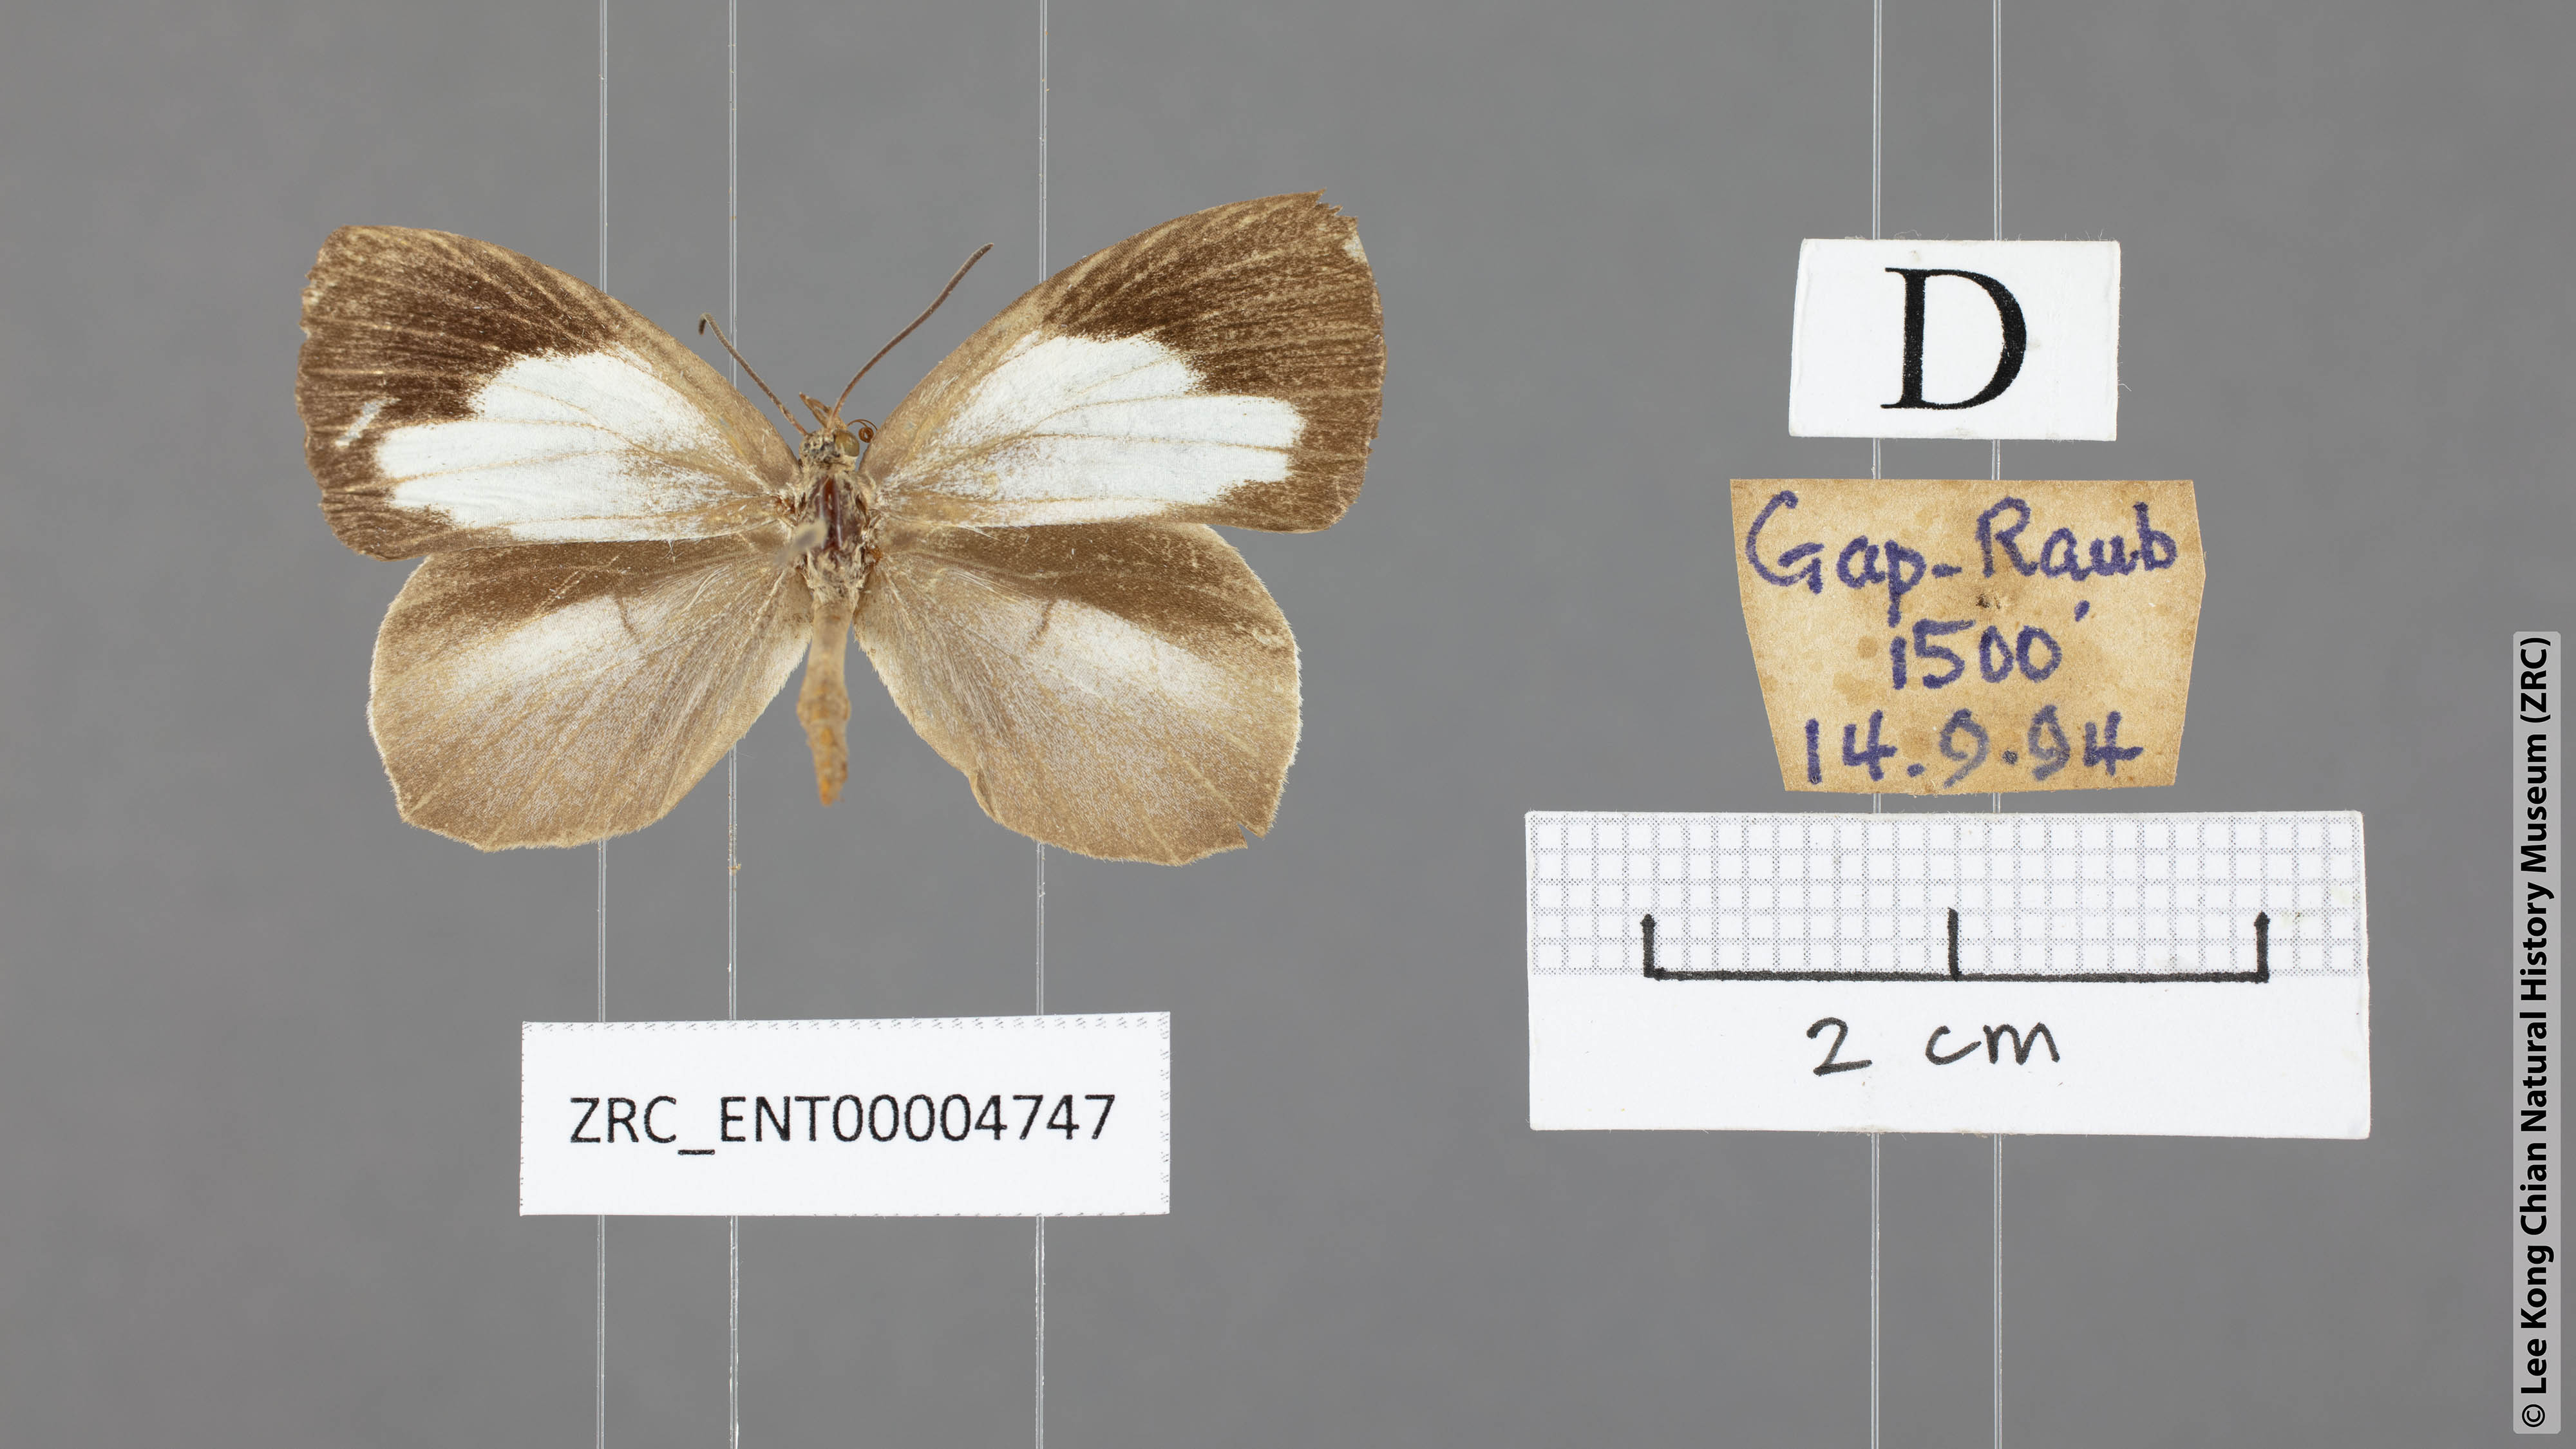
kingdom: Animalia
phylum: Arthropoda
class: Insecta
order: Lepidoptera
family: Lycaenidae
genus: Miletus
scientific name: Miletus symethus
